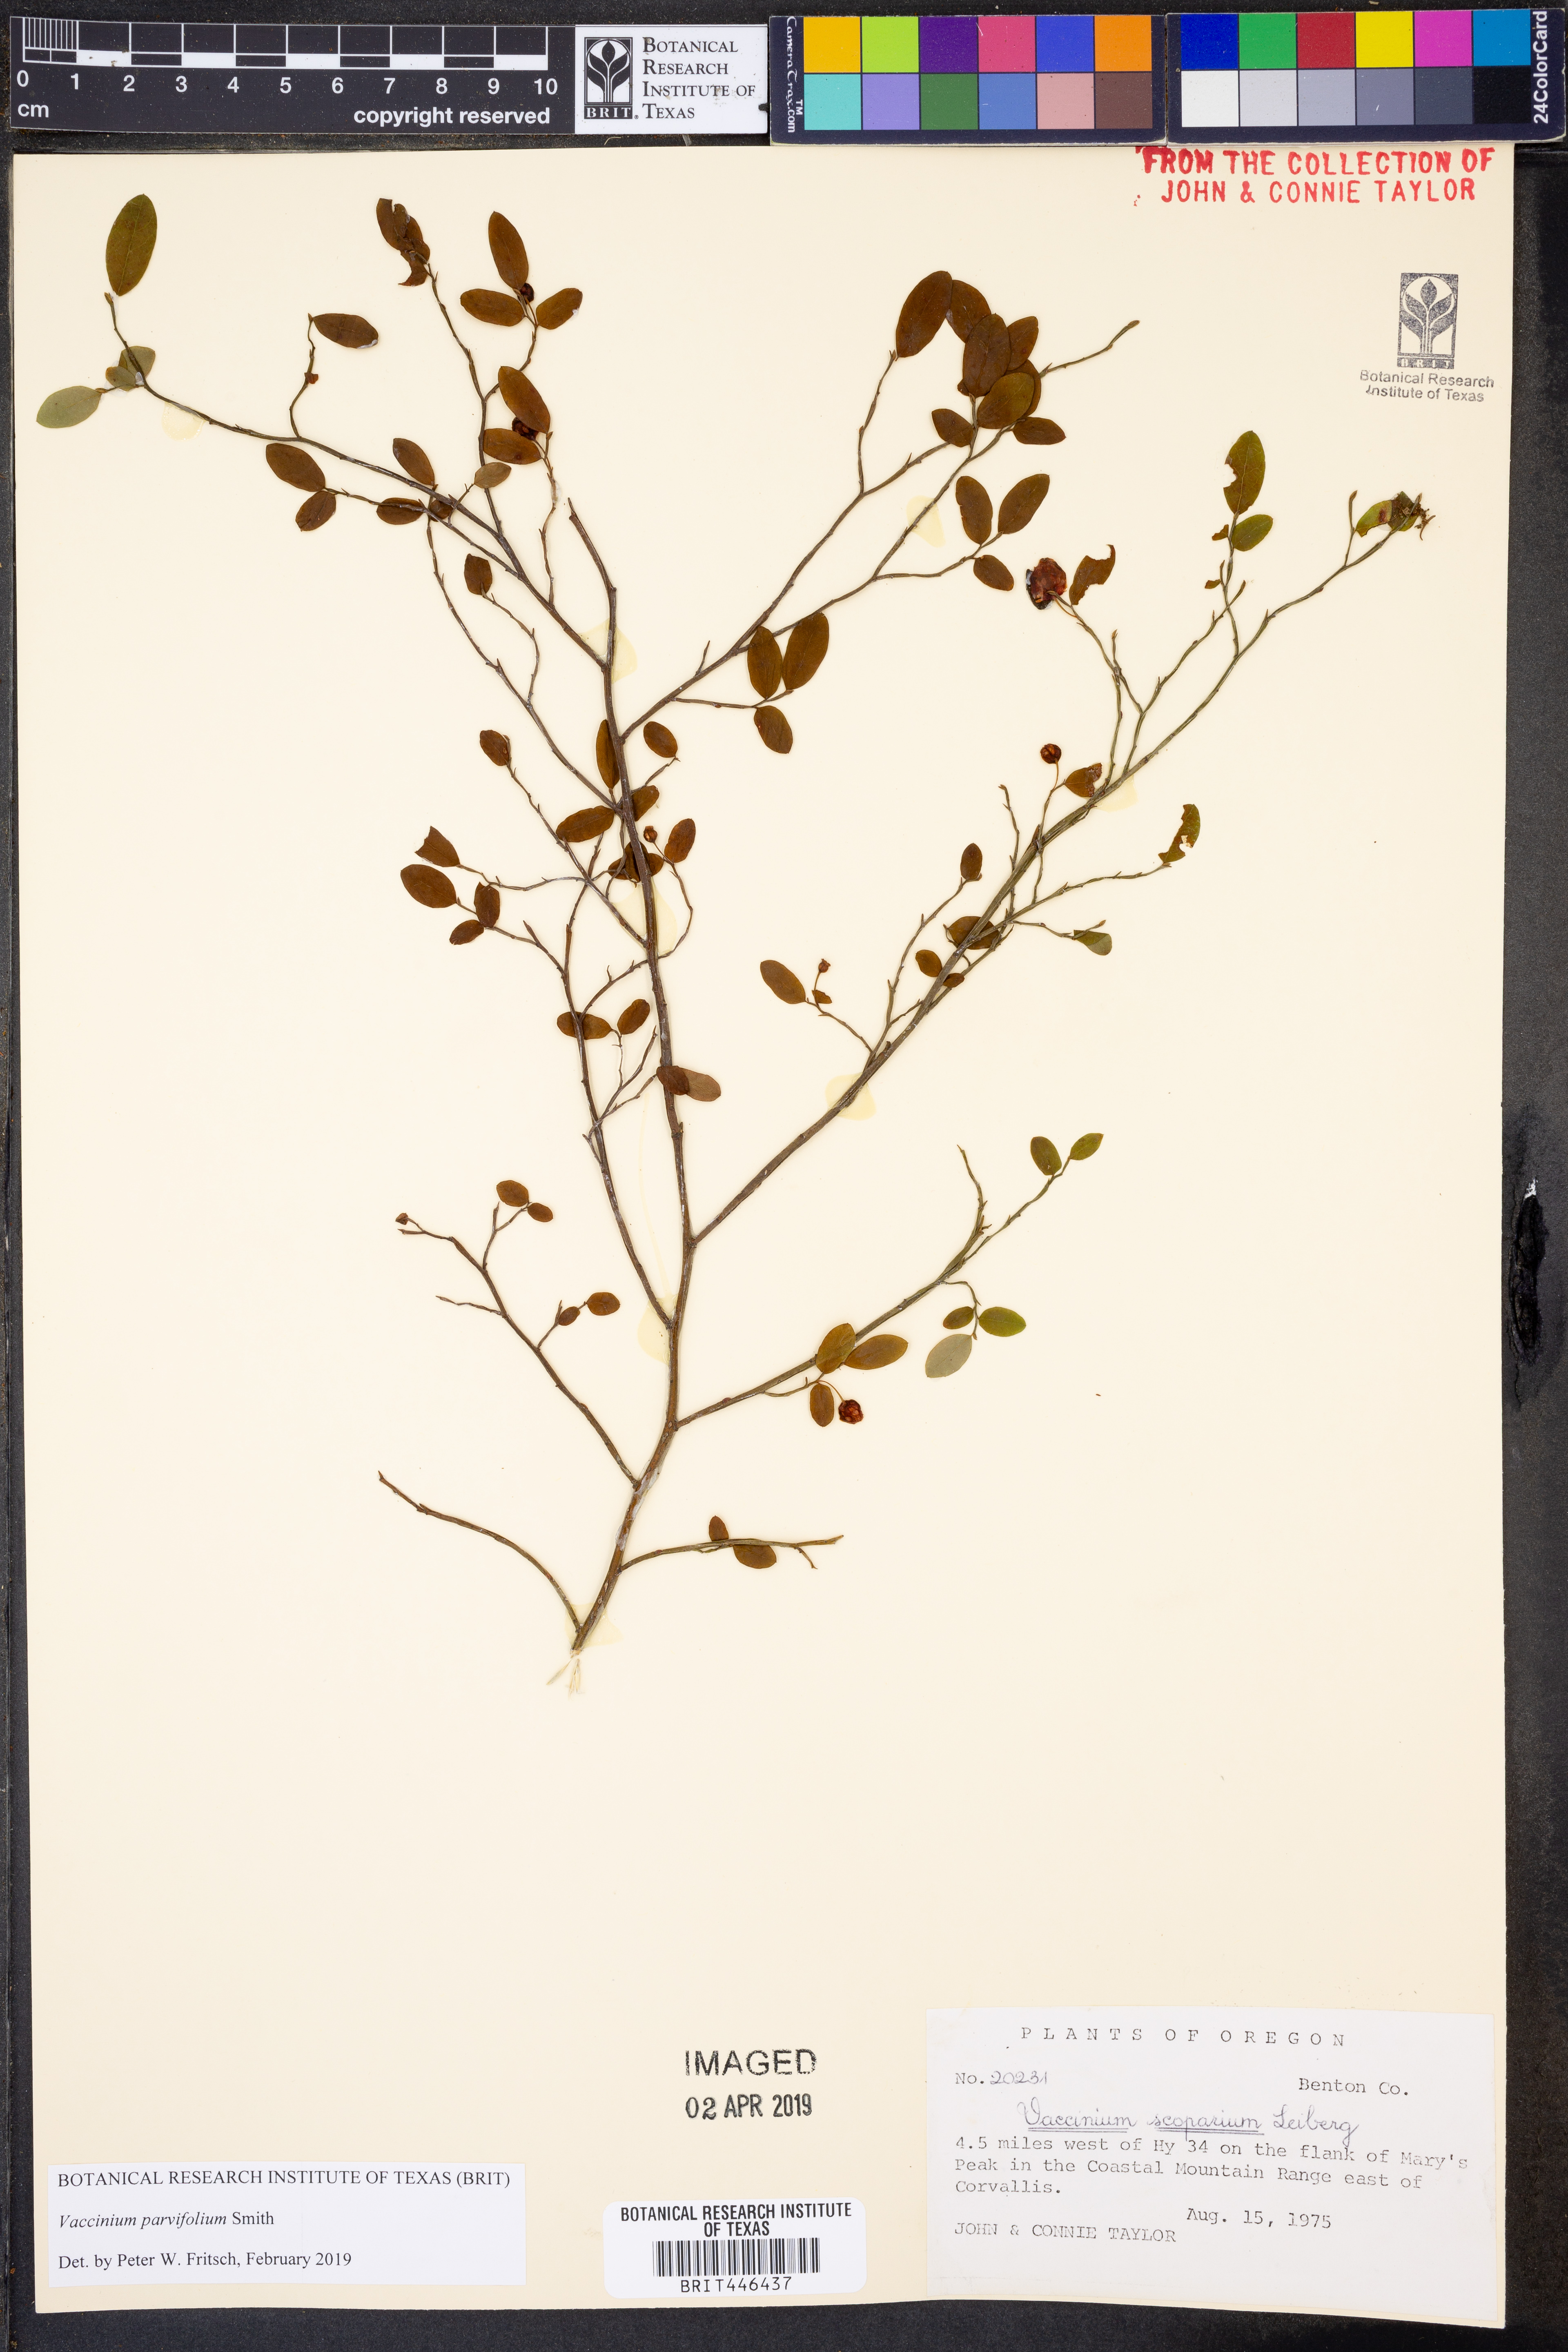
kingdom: Plantae
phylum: Tracheophyta
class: Magnoliopsida
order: Ericales
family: Ericaceae
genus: Vaccinium
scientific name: Vaccinium parvifolium
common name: Red-huckleberry
